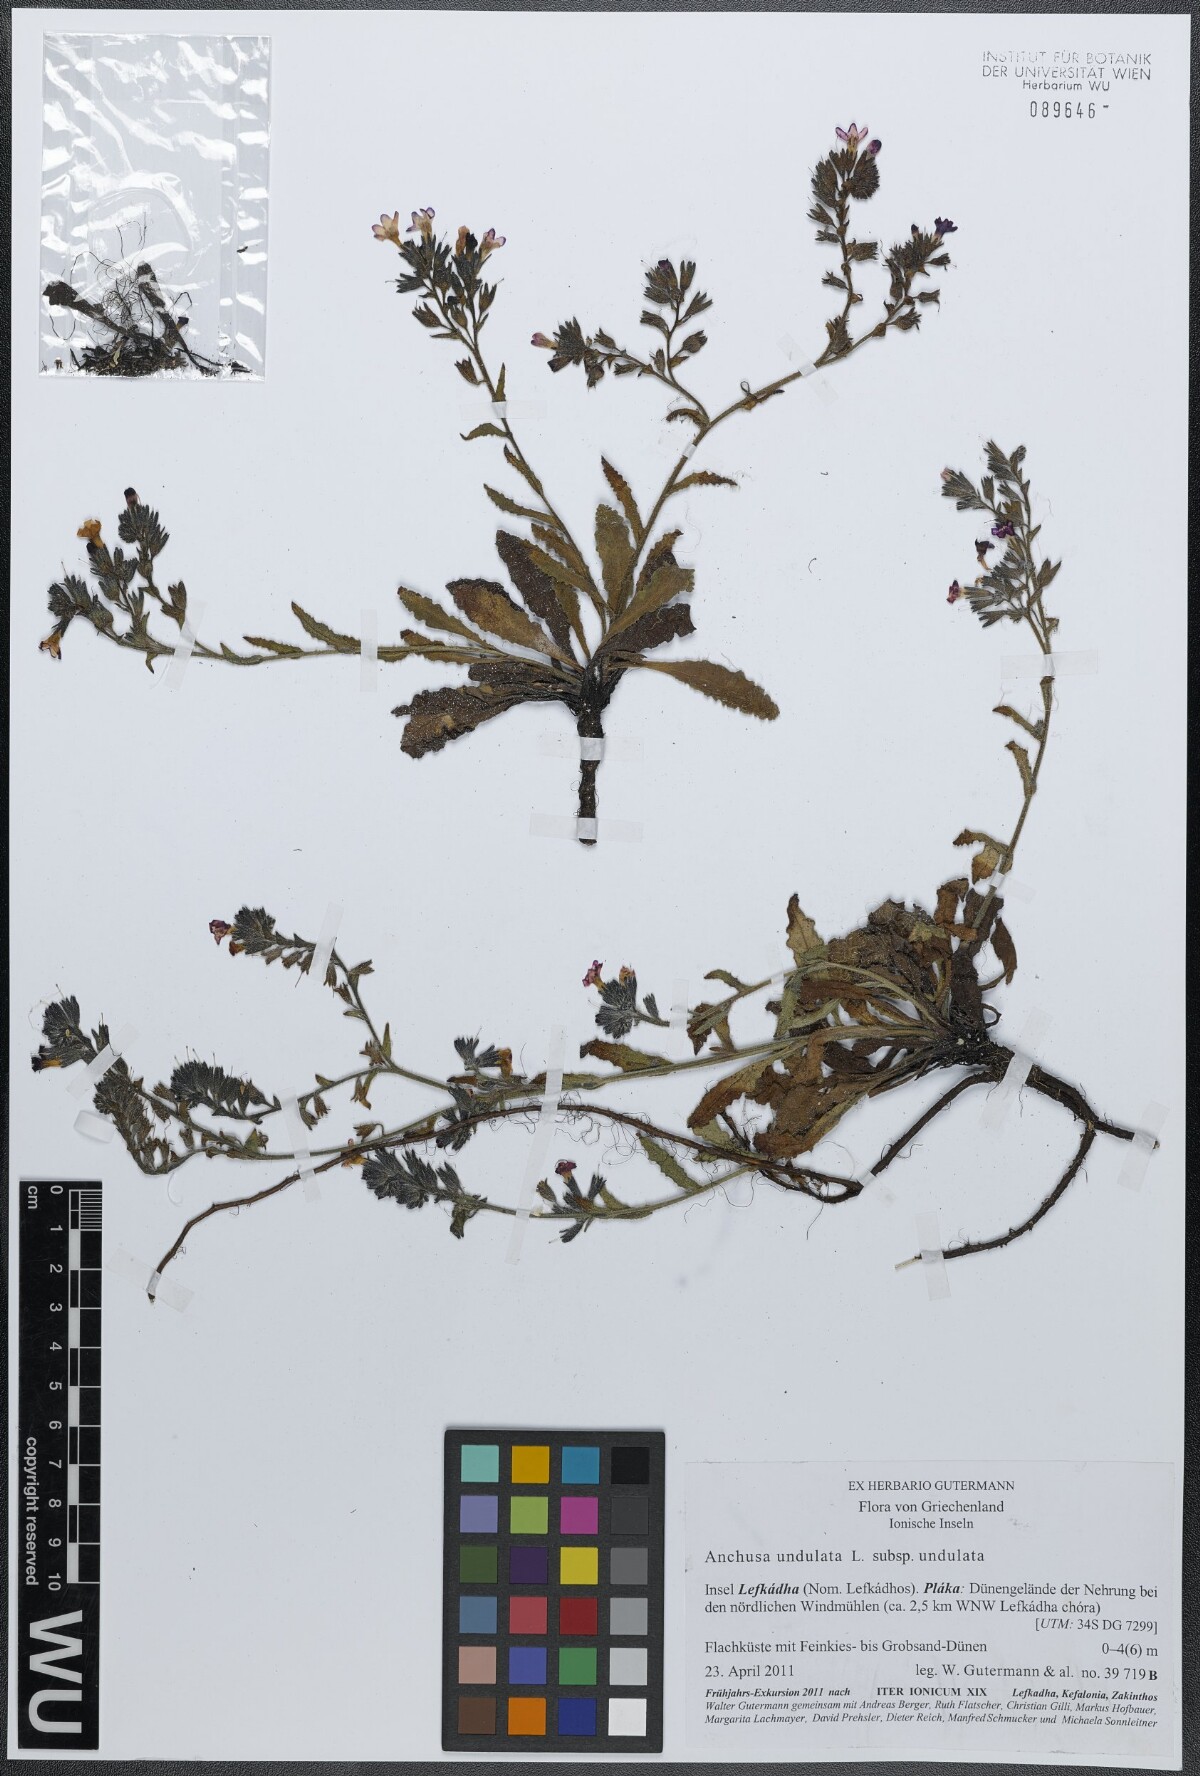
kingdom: Plantae
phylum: Tracheophyta
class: Magnoliopsida
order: Boraginales
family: Boraginaceae
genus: Anchusa
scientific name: Anchusa undulata
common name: Undulate alkanet
